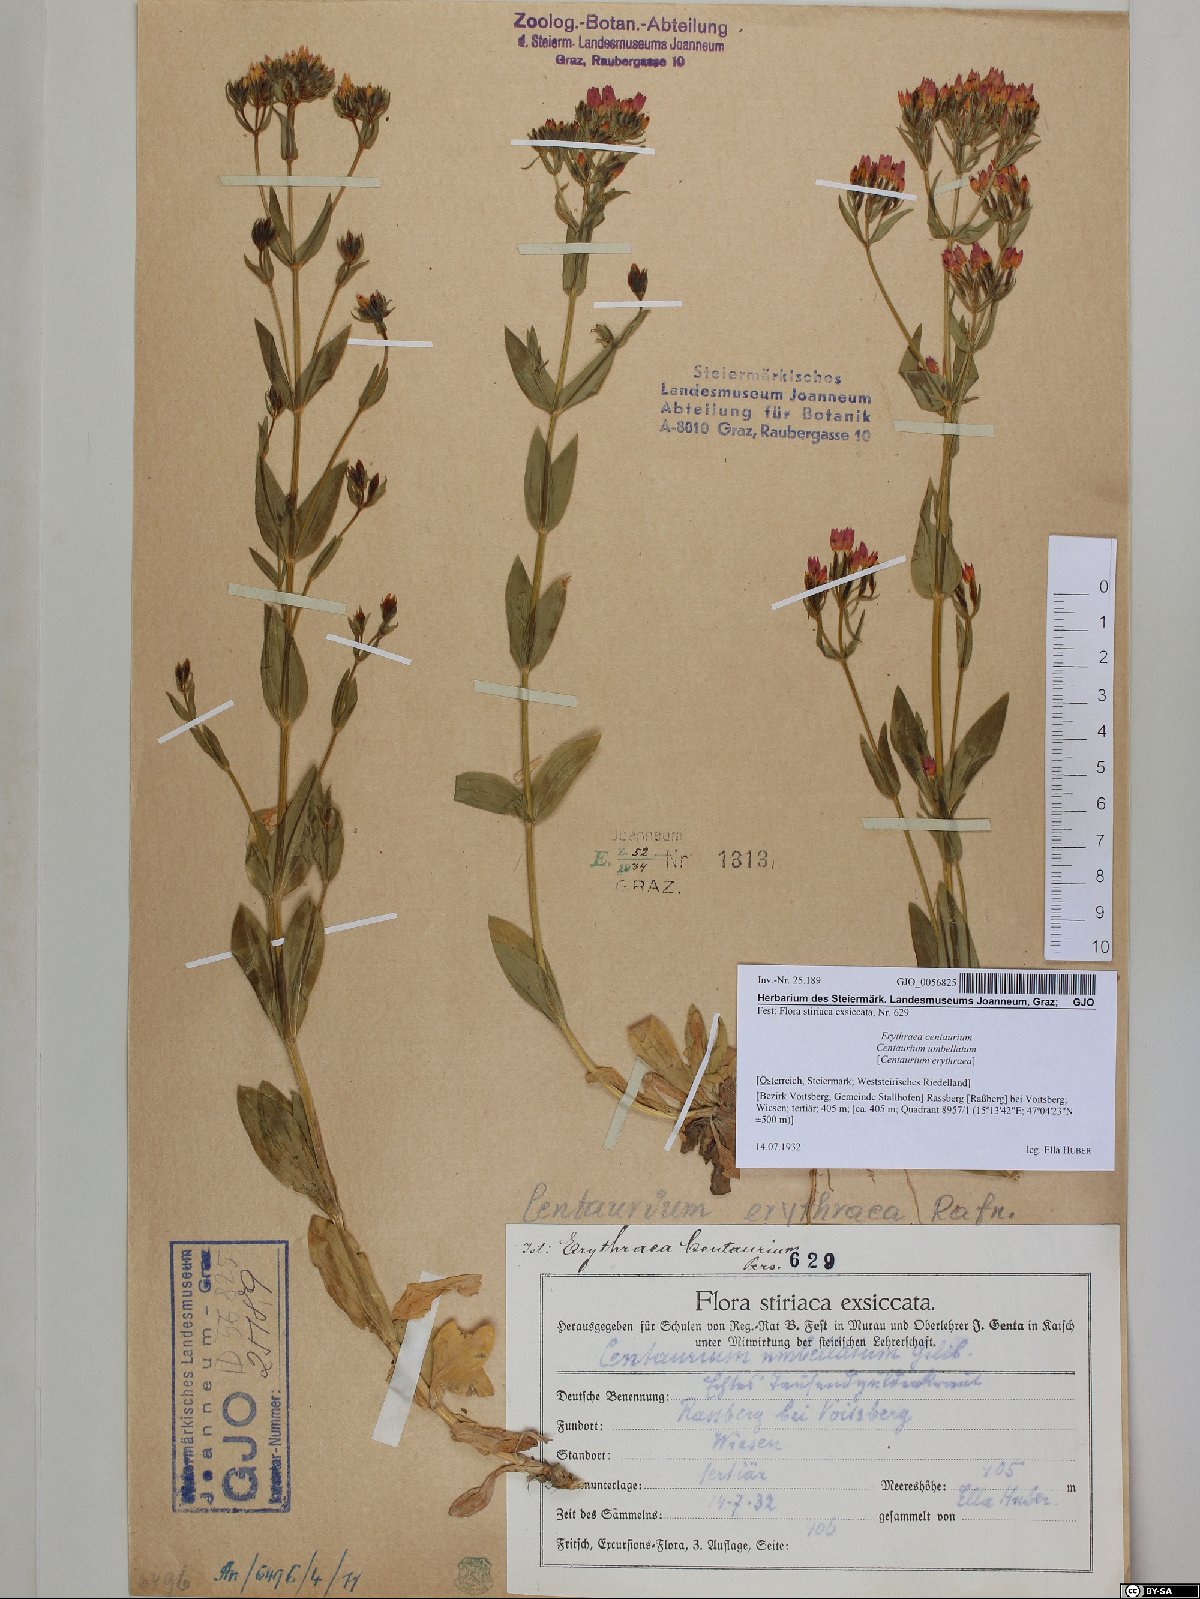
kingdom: Plantae
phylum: Tracheophyta
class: Magnoliopsida
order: Gentianales
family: Gentianaceae
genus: Centaurium
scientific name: Centaurium erythraea
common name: Common centaury
